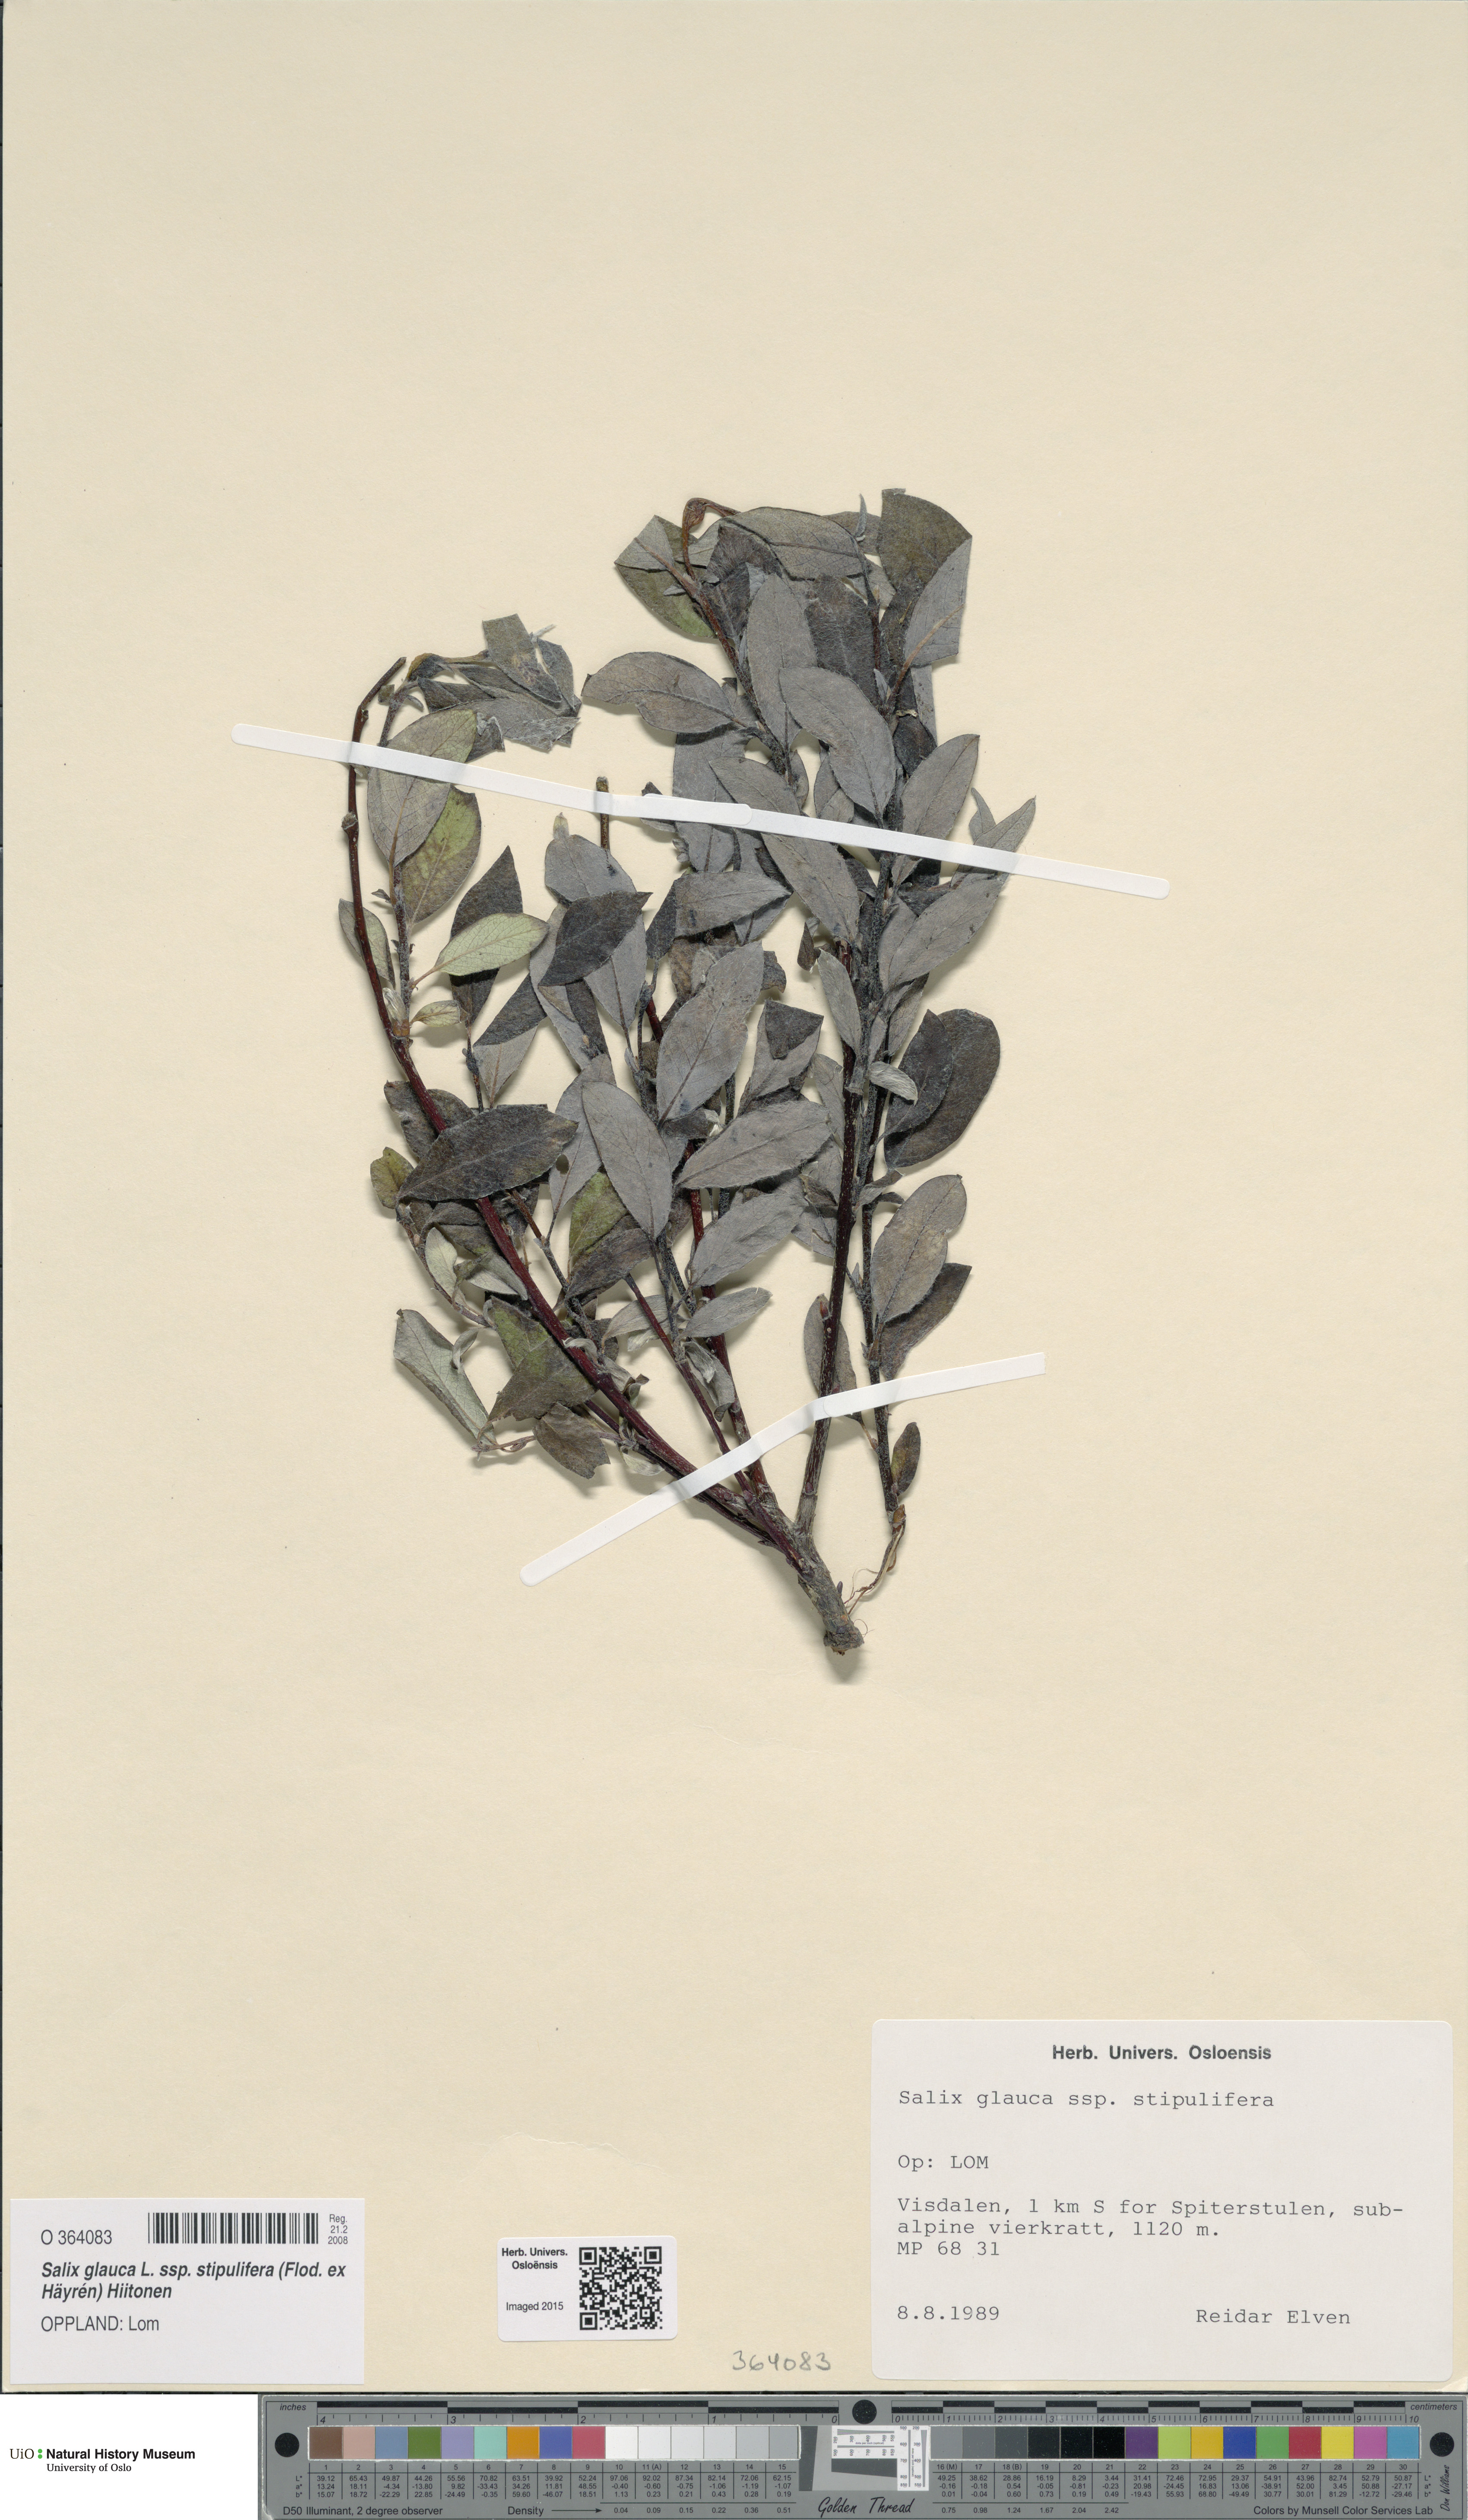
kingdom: Plantae
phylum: Tracheophyta
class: Magnoliopsida
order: Malpighiales
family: Salicaceae
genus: Salix
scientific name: Salix glauca
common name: Glaucous willow
